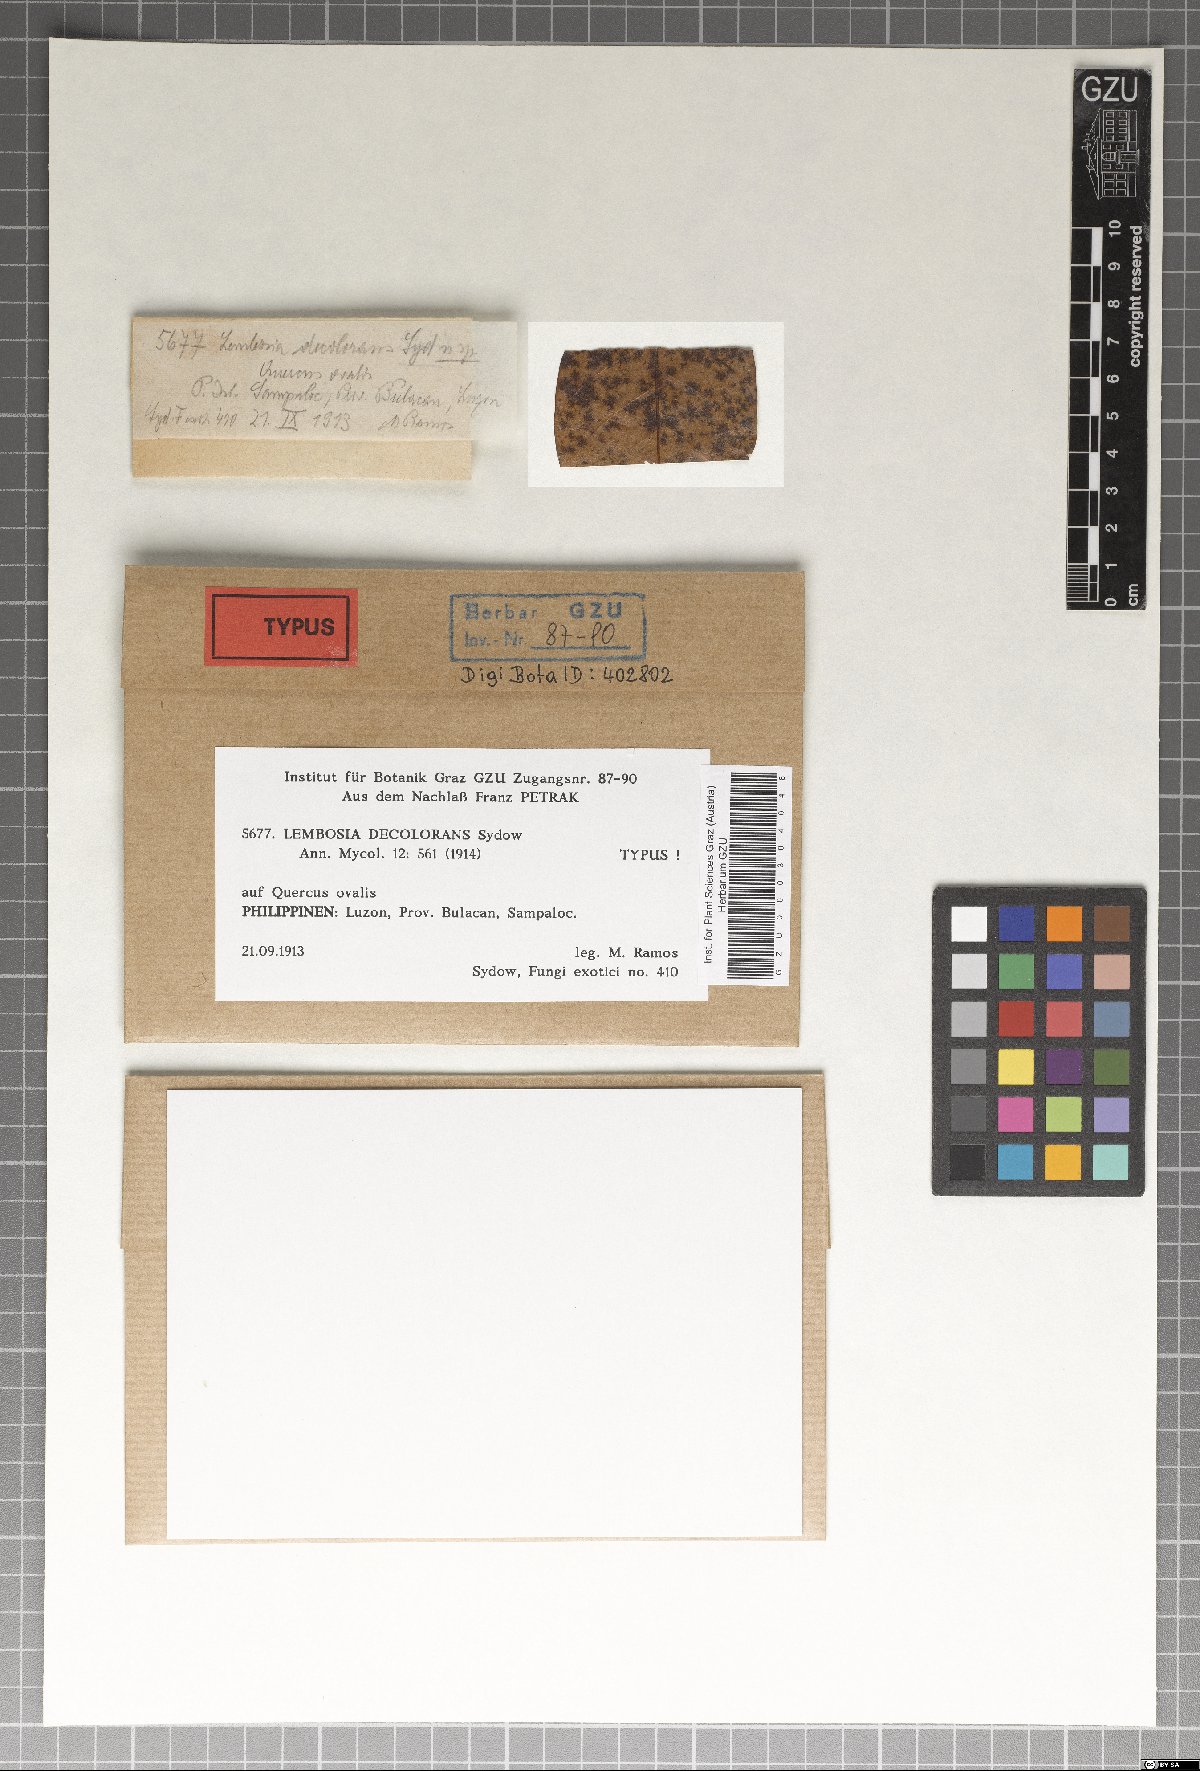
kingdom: Fungi
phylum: Ascomycota
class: Dothideomycetes
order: Asterinales
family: Asterinaceae
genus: Lembosia
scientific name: Lembosia decolorans
